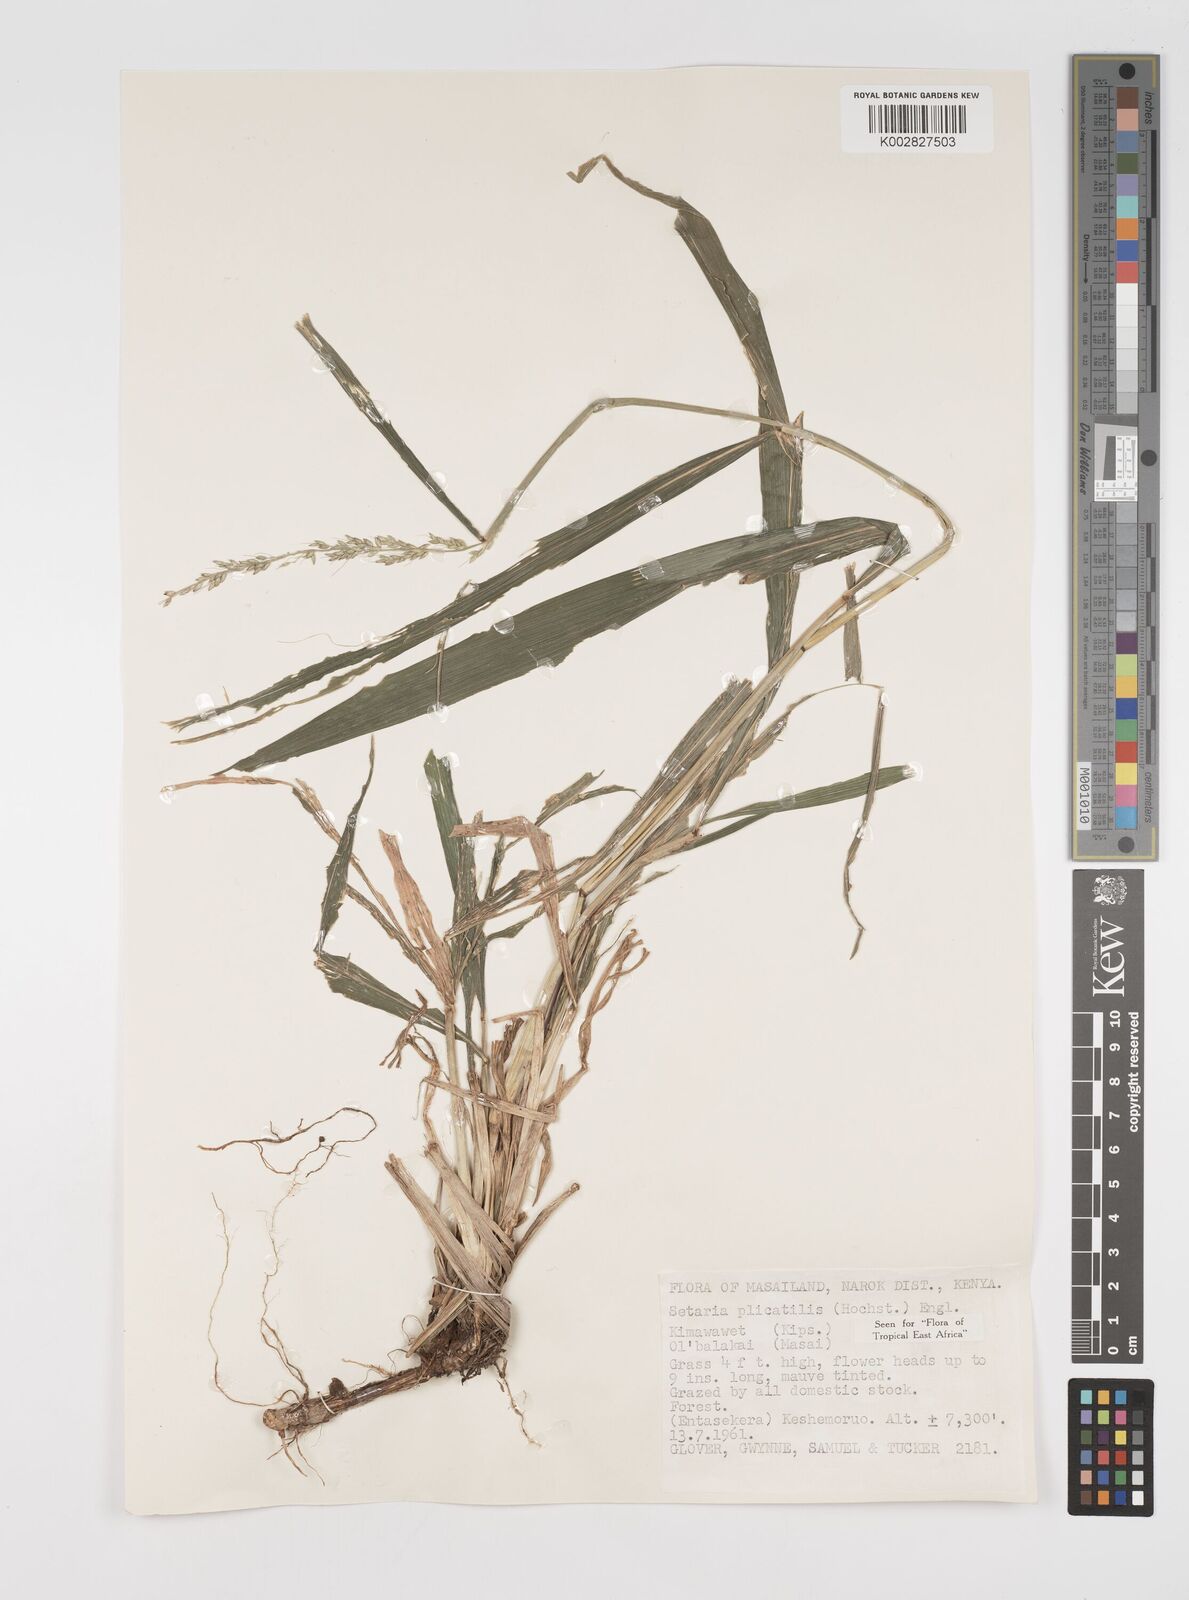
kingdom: Plantae
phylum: Tracheophyta
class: Liliopsida
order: Poales
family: Poaceae
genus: Setaria
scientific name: Setaria megaphylla
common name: Bigleaf bristlegrass
